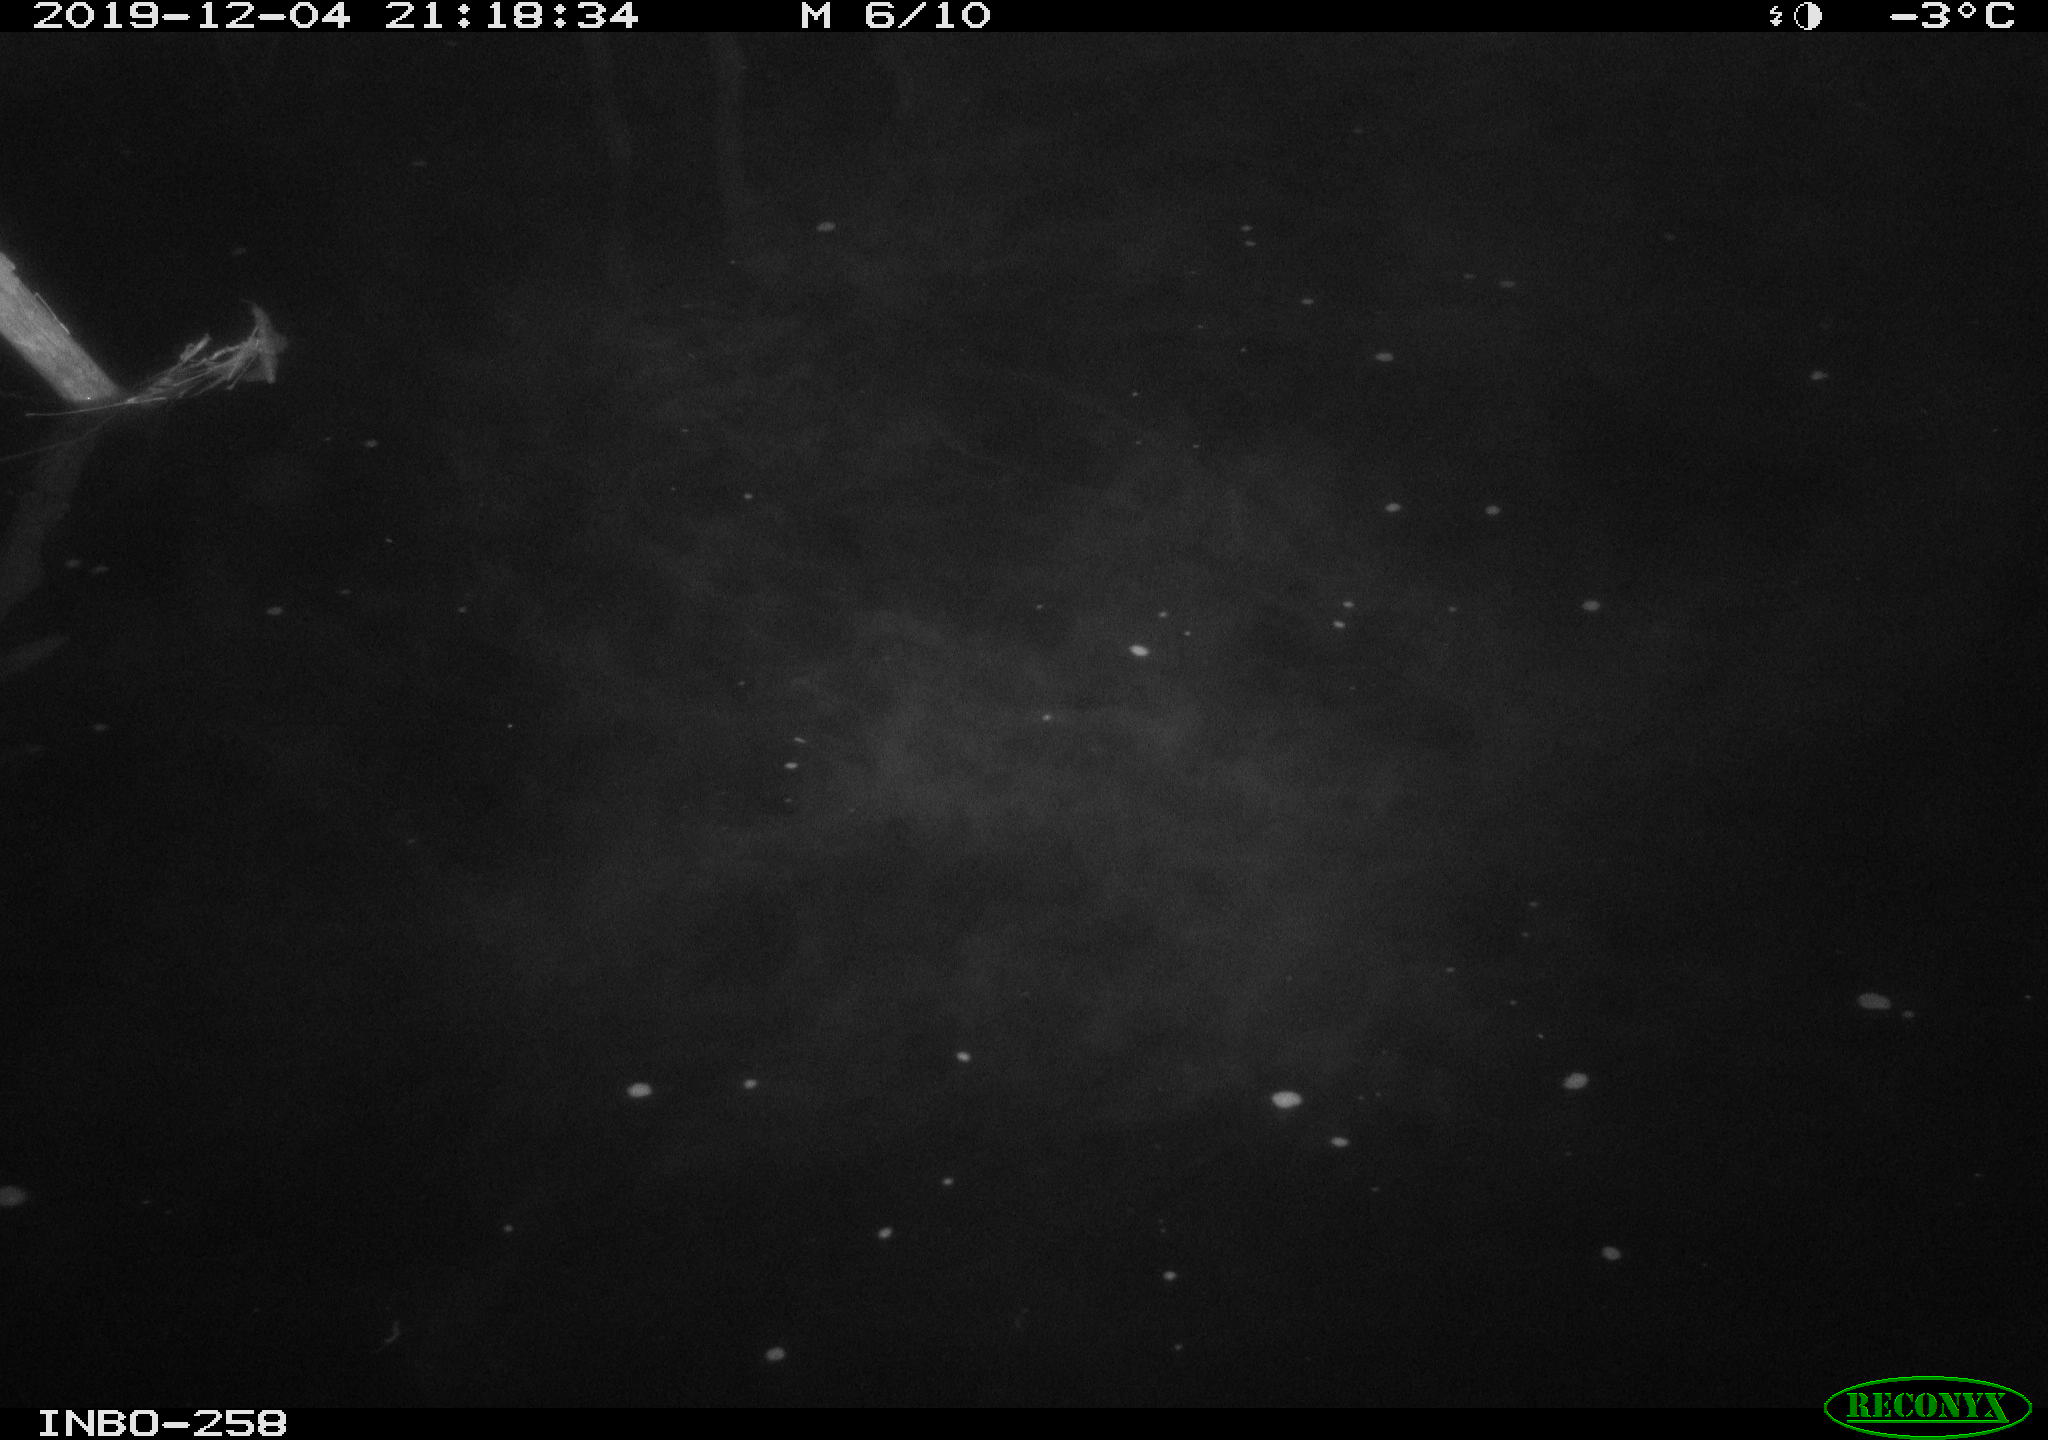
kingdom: Animalia
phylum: Chordata
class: Aves
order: Anseriformes
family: Anatidae
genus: Anas
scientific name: Anas platyrhynchos
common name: Mallard
